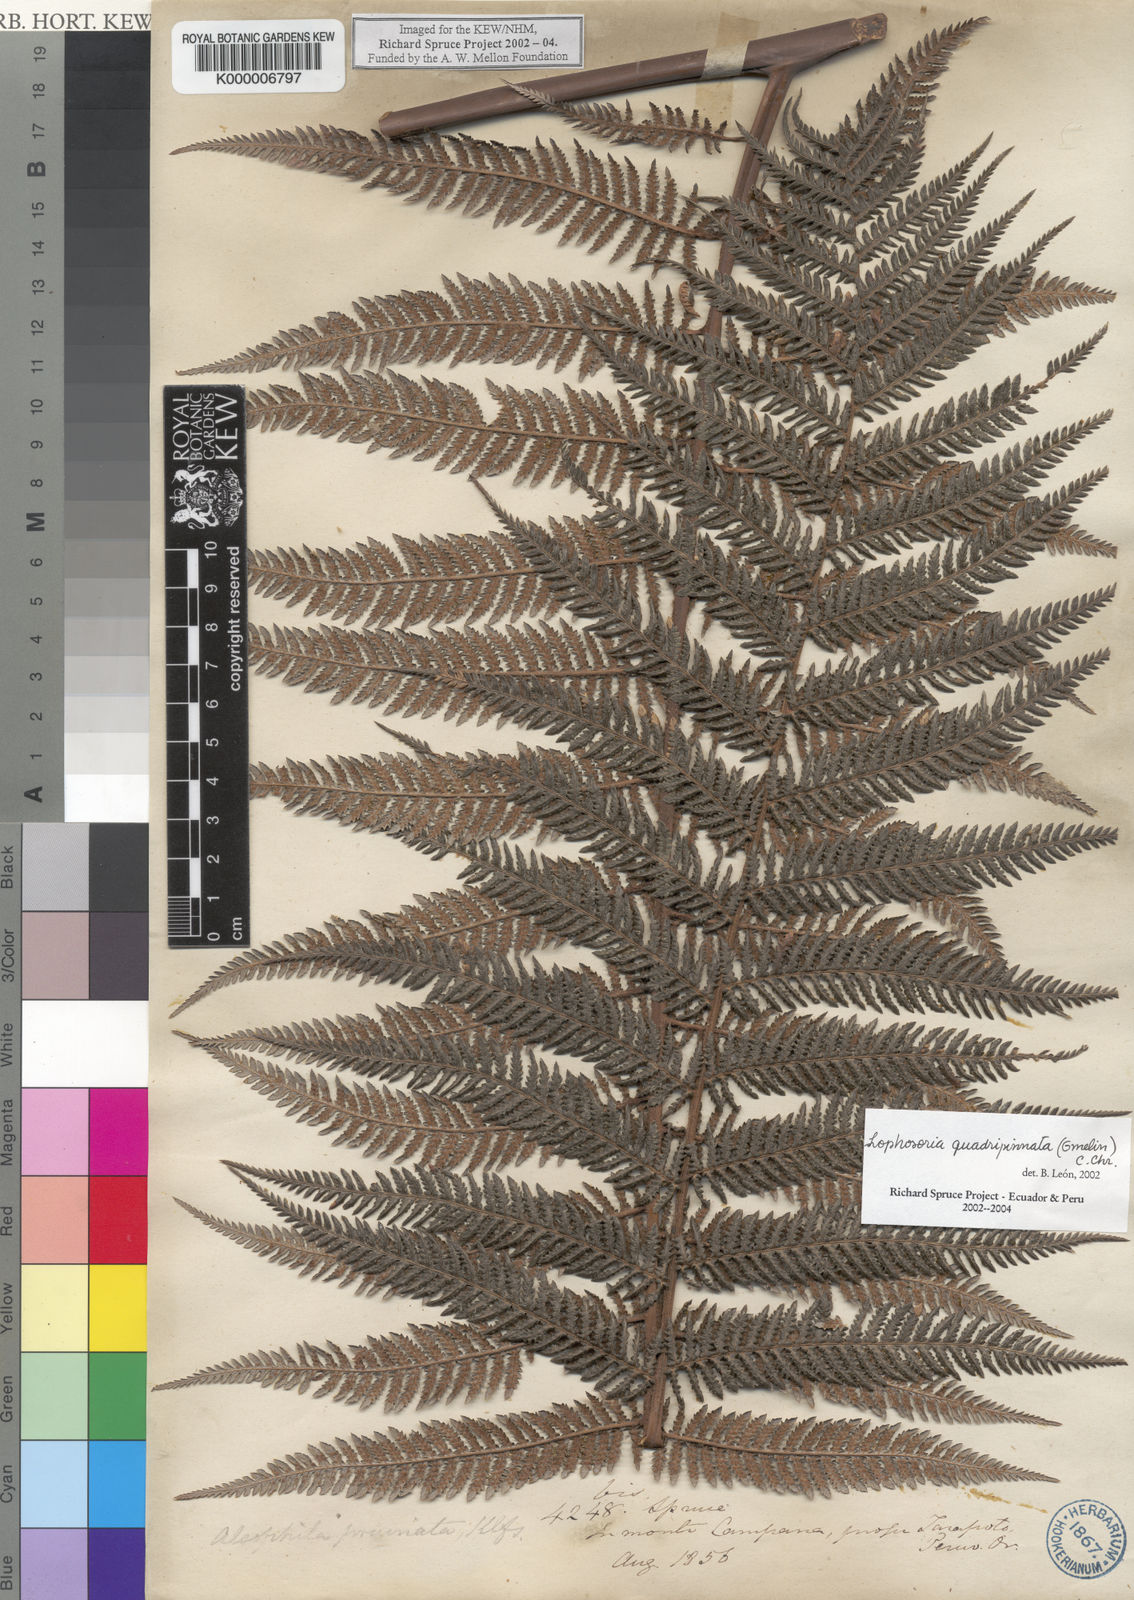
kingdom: Plantae
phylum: Tracheophyta
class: Polypodiopsida
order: Cyatheales
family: Dicksoniaceae
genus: Lophosoria
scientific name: Lophosoria
